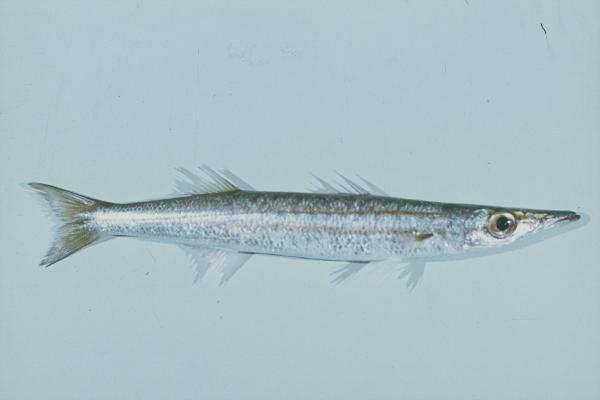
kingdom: Animalia
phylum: Chordata
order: Perciformes
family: Sphyraenidae
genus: Sphyraena
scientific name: Sphyraena
